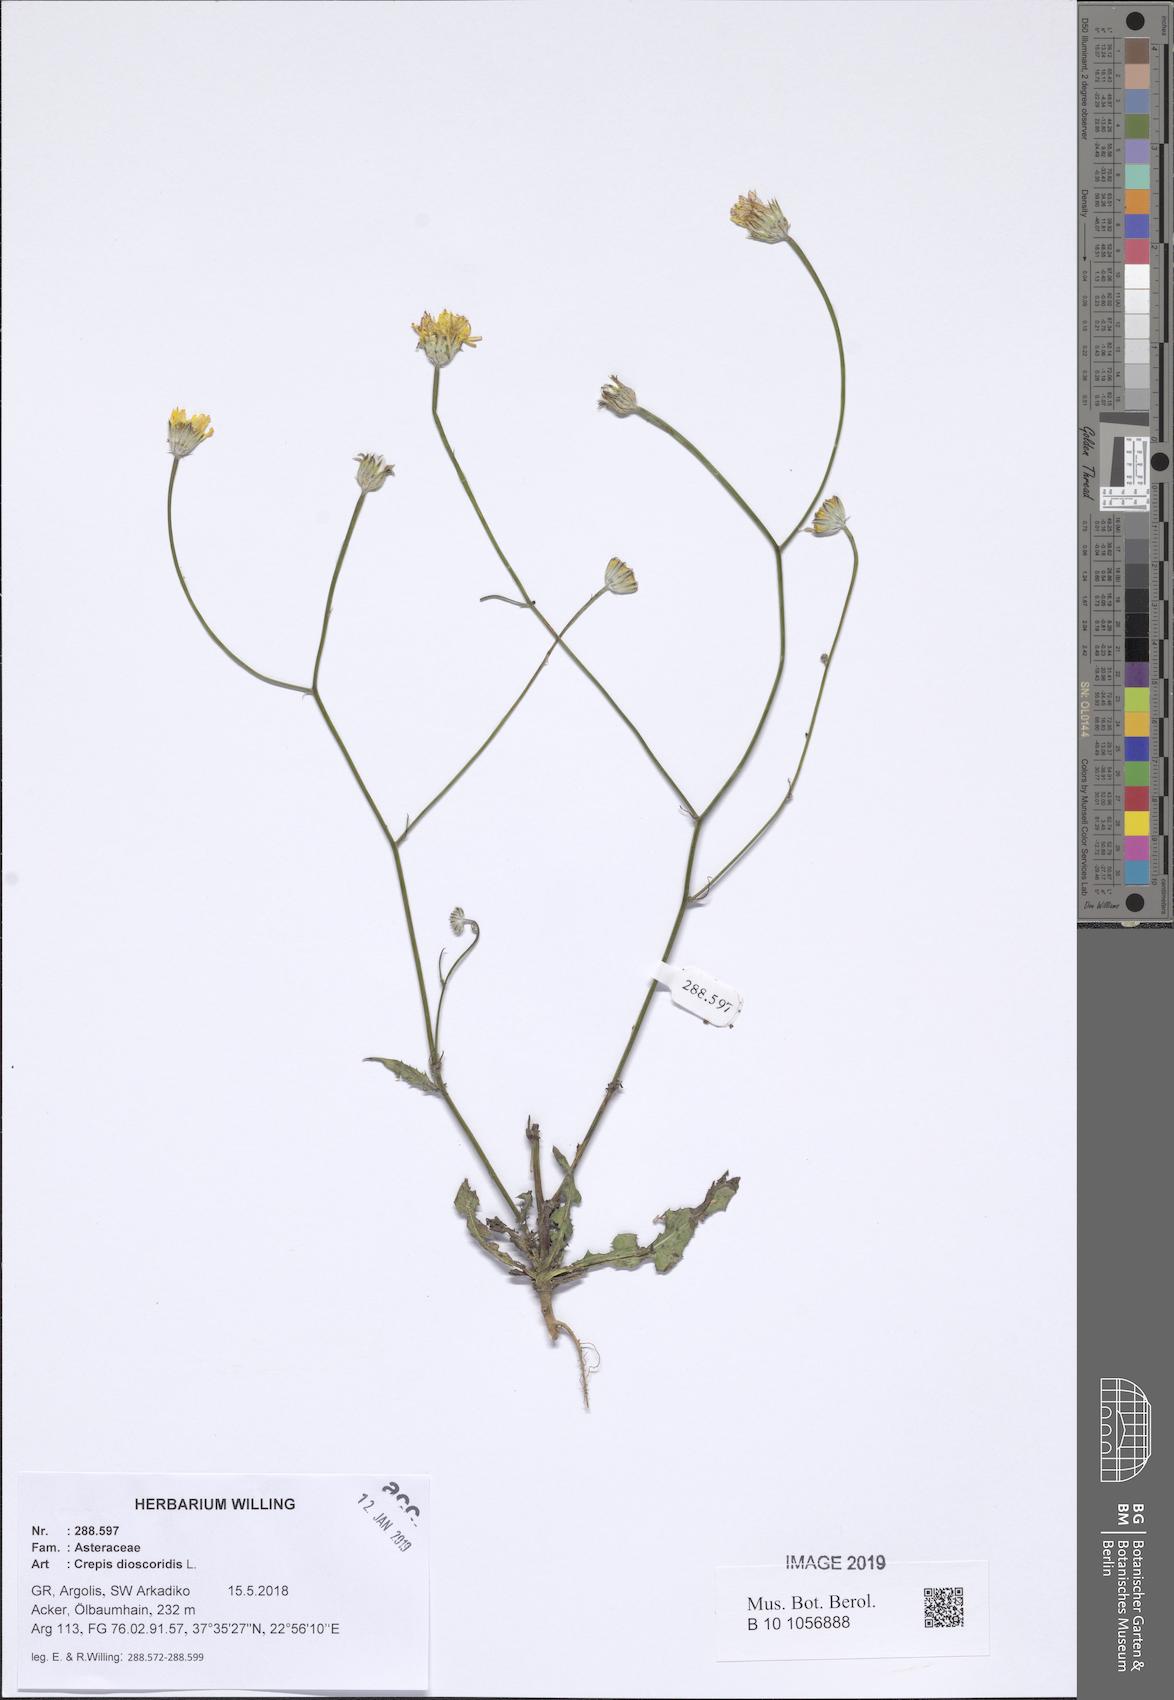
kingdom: Plantae
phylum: Tracheophyta
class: Magnoliopsida
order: Asterales
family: Asteraceae
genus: Crepis
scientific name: Crepis dioscoridis
